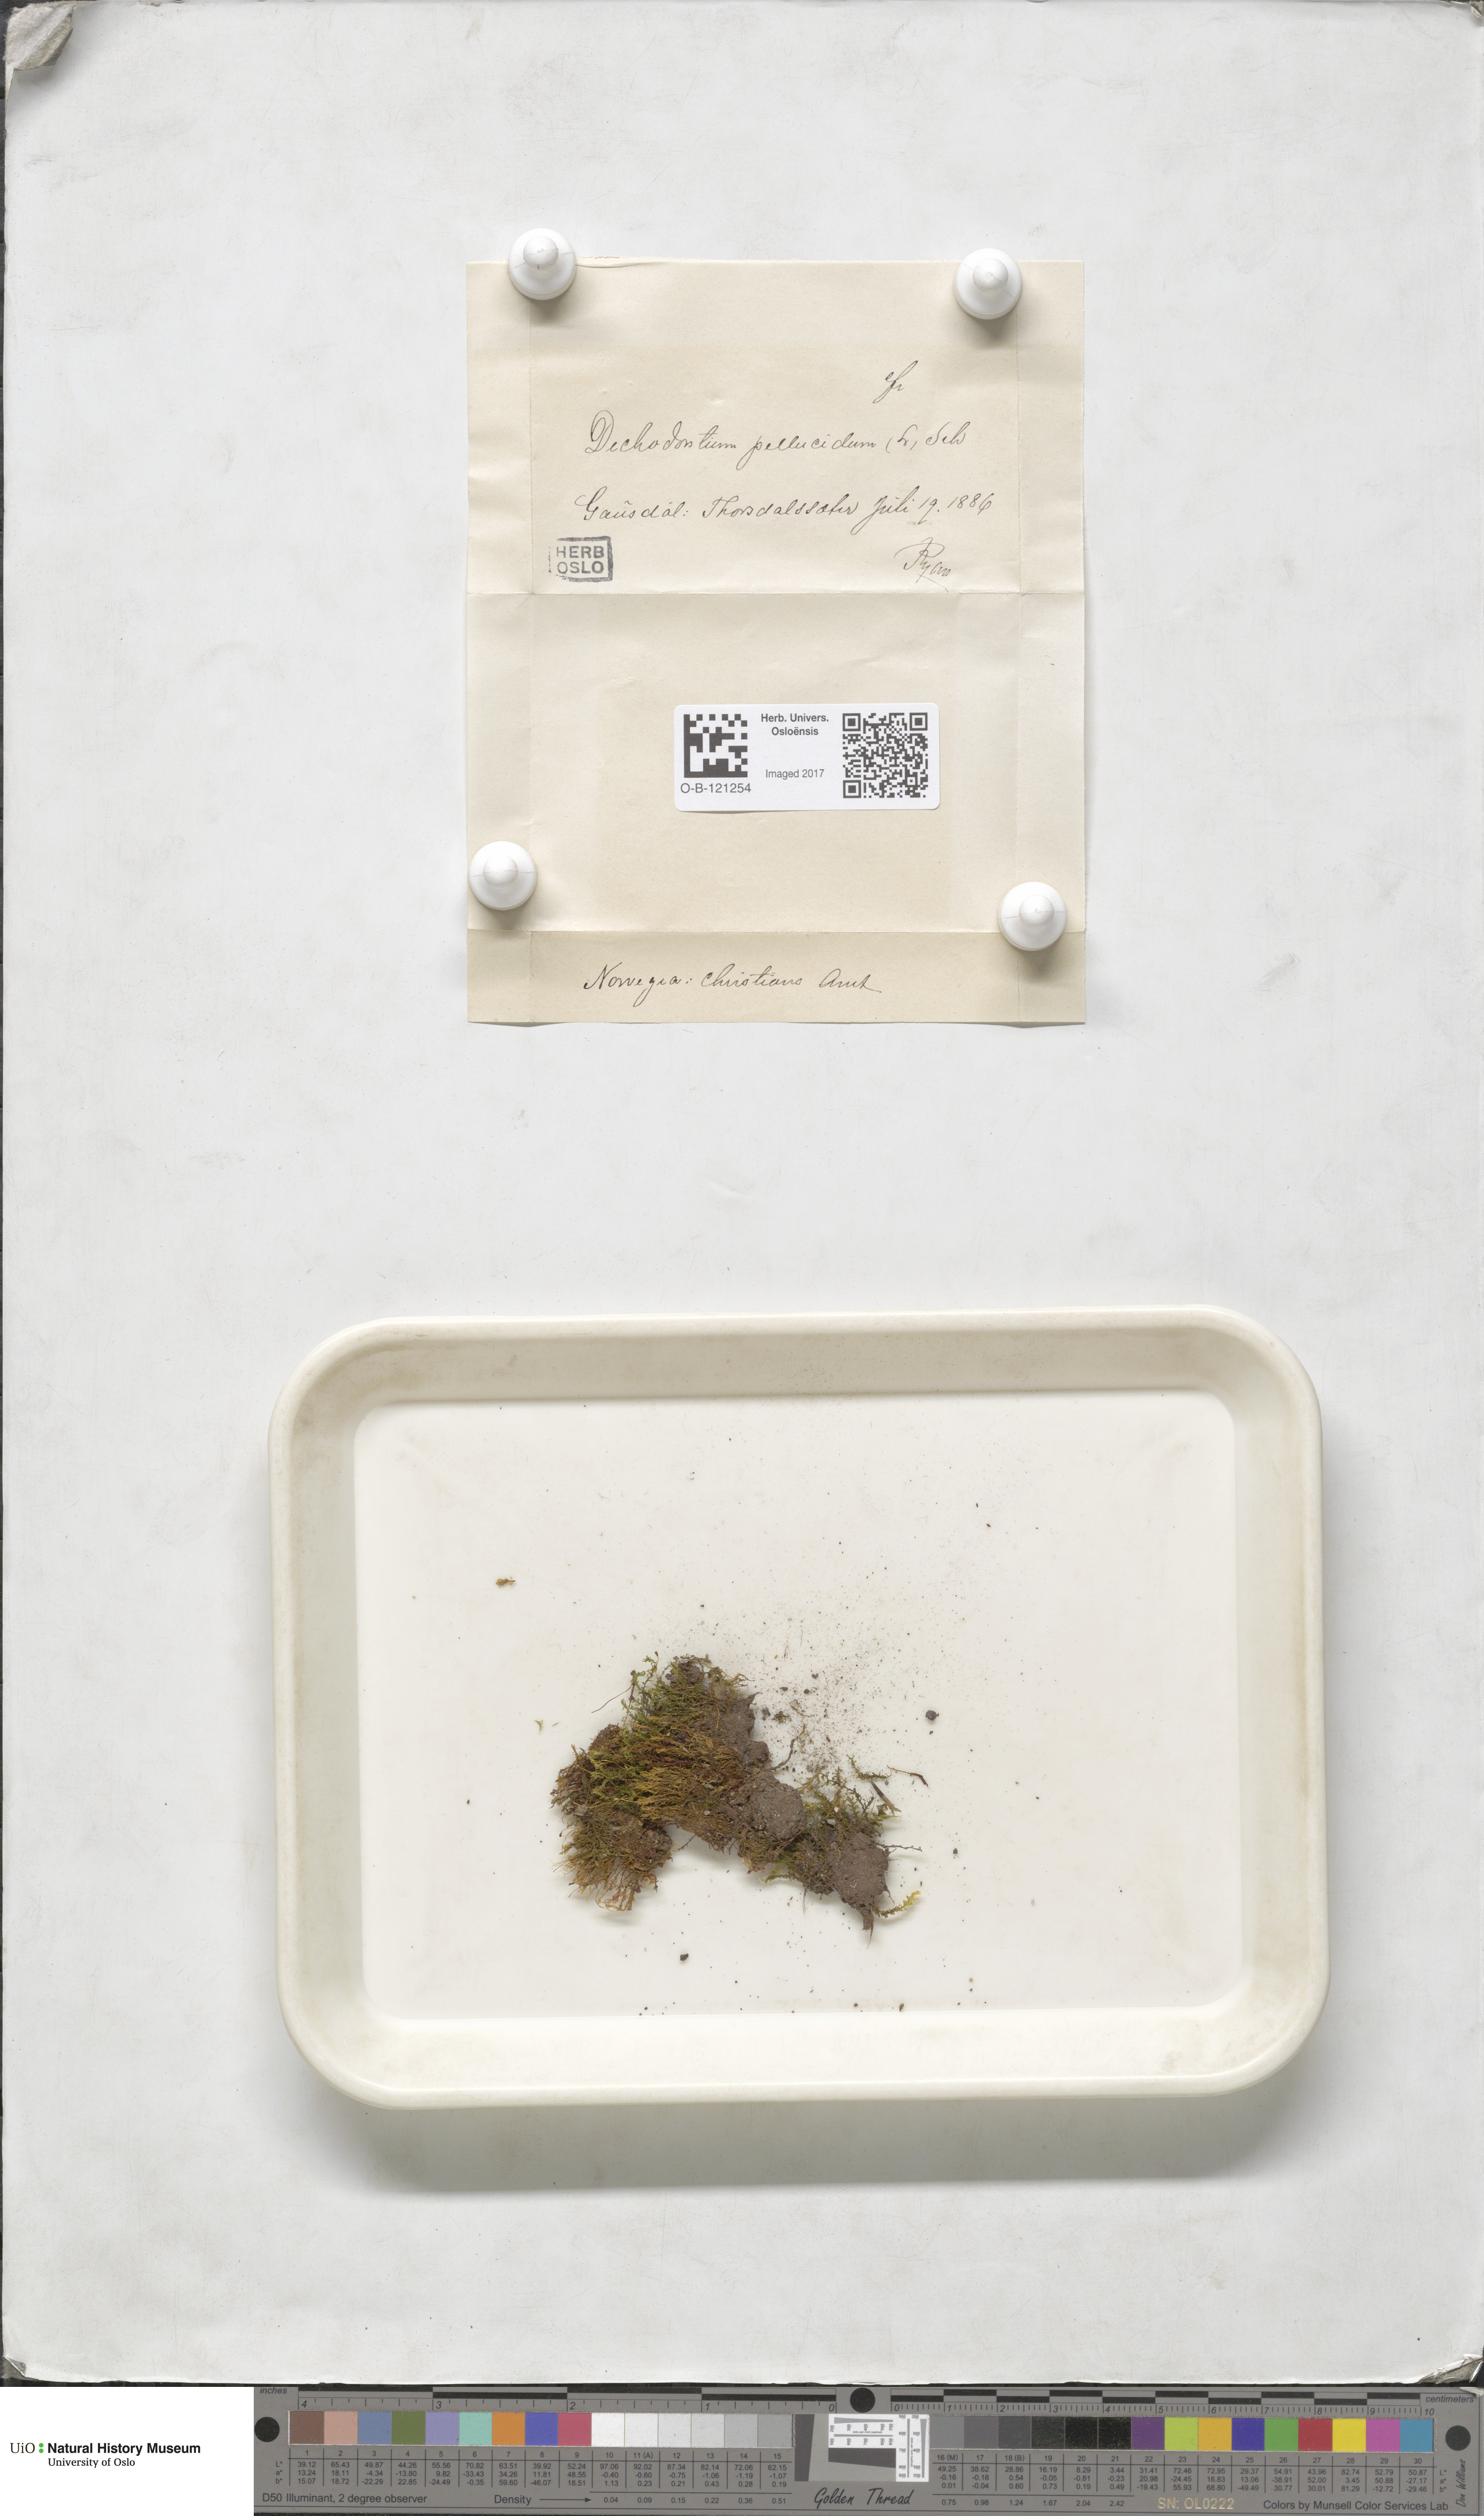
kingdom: Plantae
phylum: Bryophyta
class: Bryopsida
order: Dicranales
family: Aongstroemiaceae
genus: Dichodontium
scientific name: Dichodontium pellucidum
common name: Transparent fork moss
